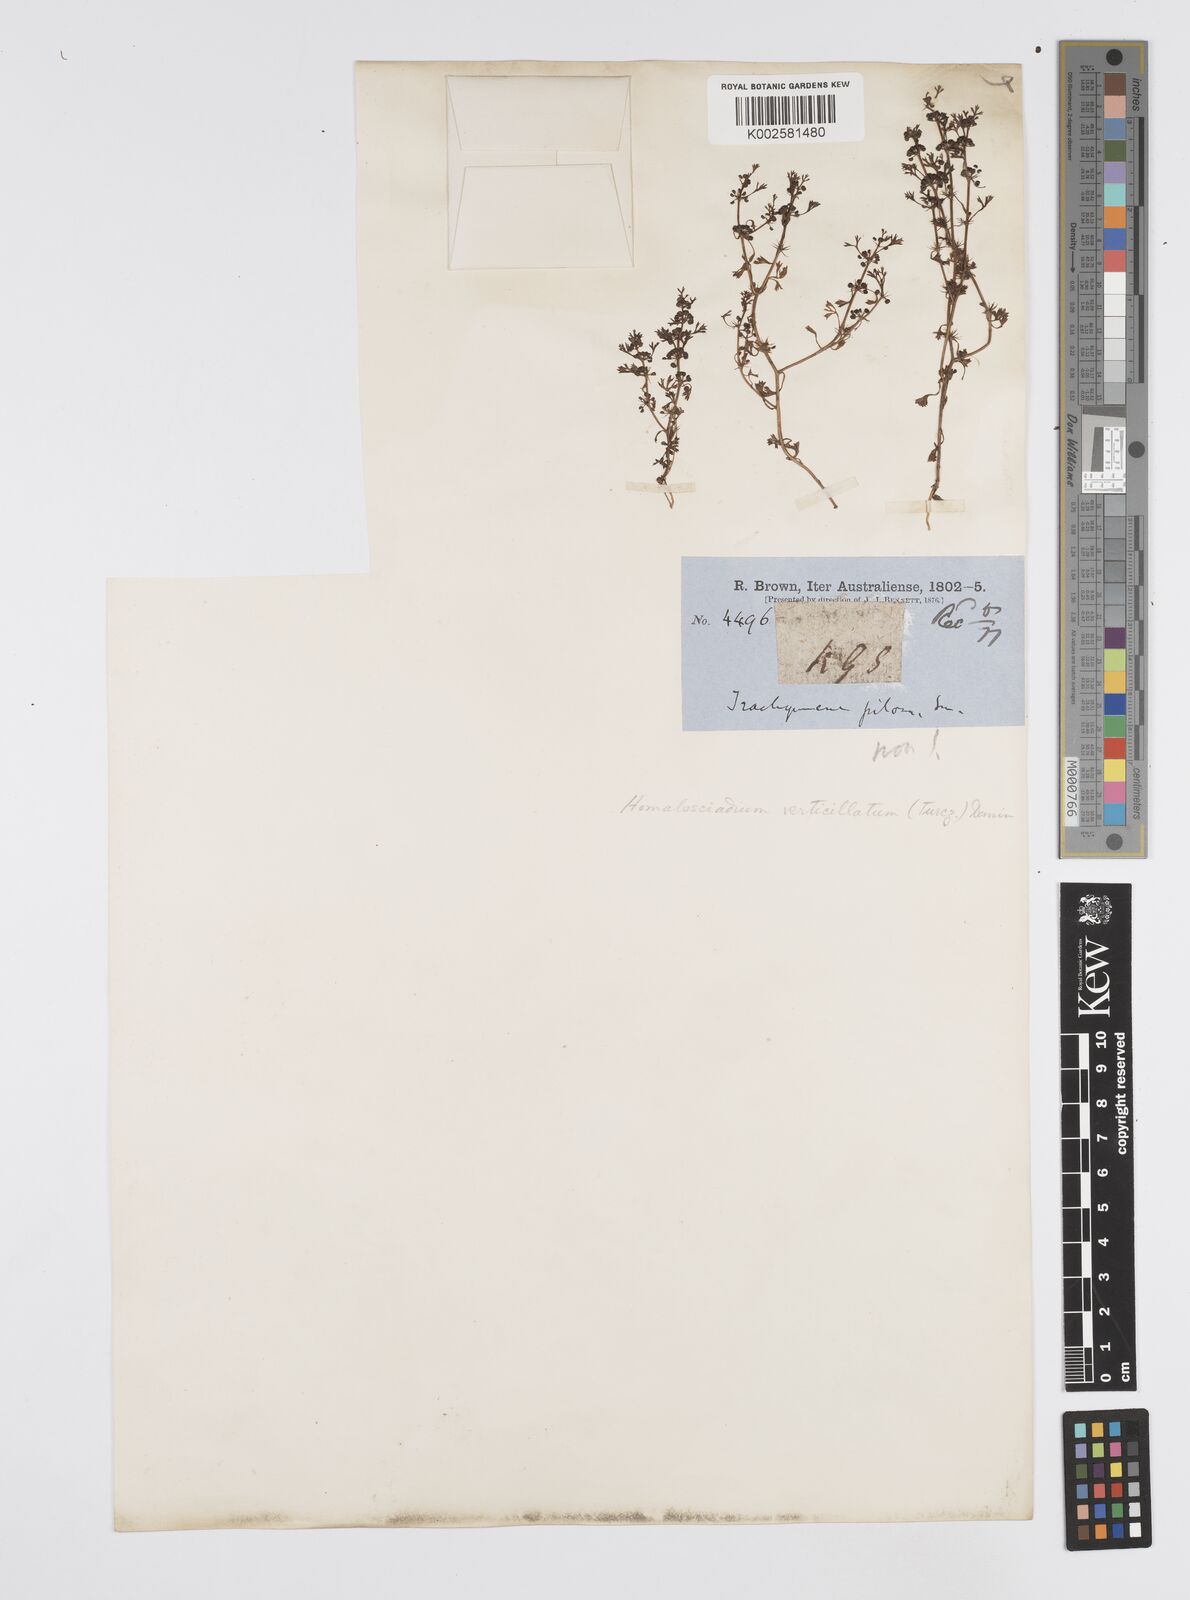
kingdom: Plantae
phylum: Tracheophyta
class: Magnoliopsida
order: Apiales
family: Apiaceae
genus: Homalosciadium
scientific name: Homalosciadium homalocarpum
